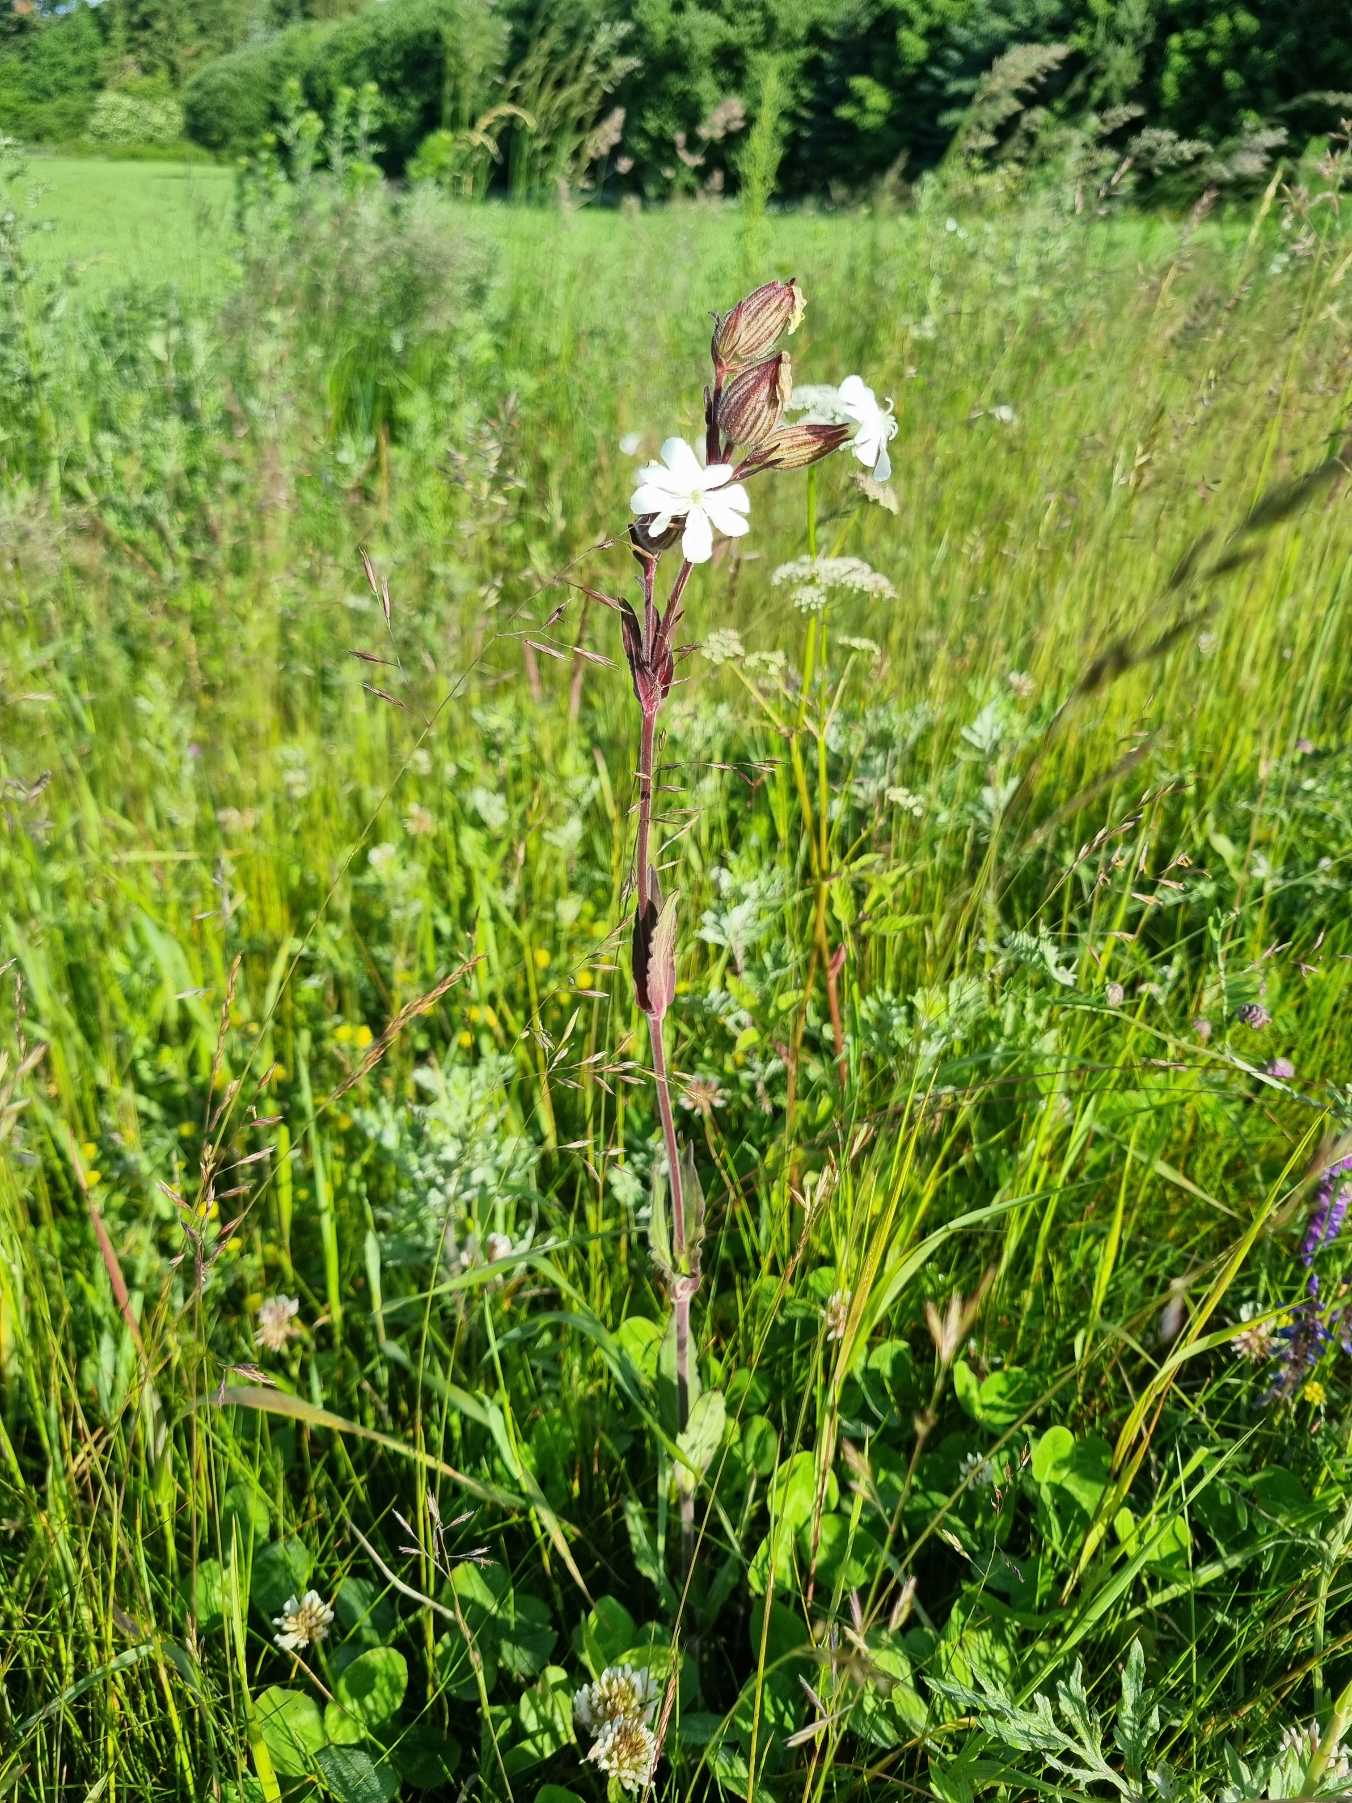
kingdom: Plantae
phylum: Tracheophyta
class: Magnoliopsida
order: Caryophyllales
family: Caryophyllaceae
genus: Silene
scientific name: Silene latifolia
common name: Aftenpragtstjerne
